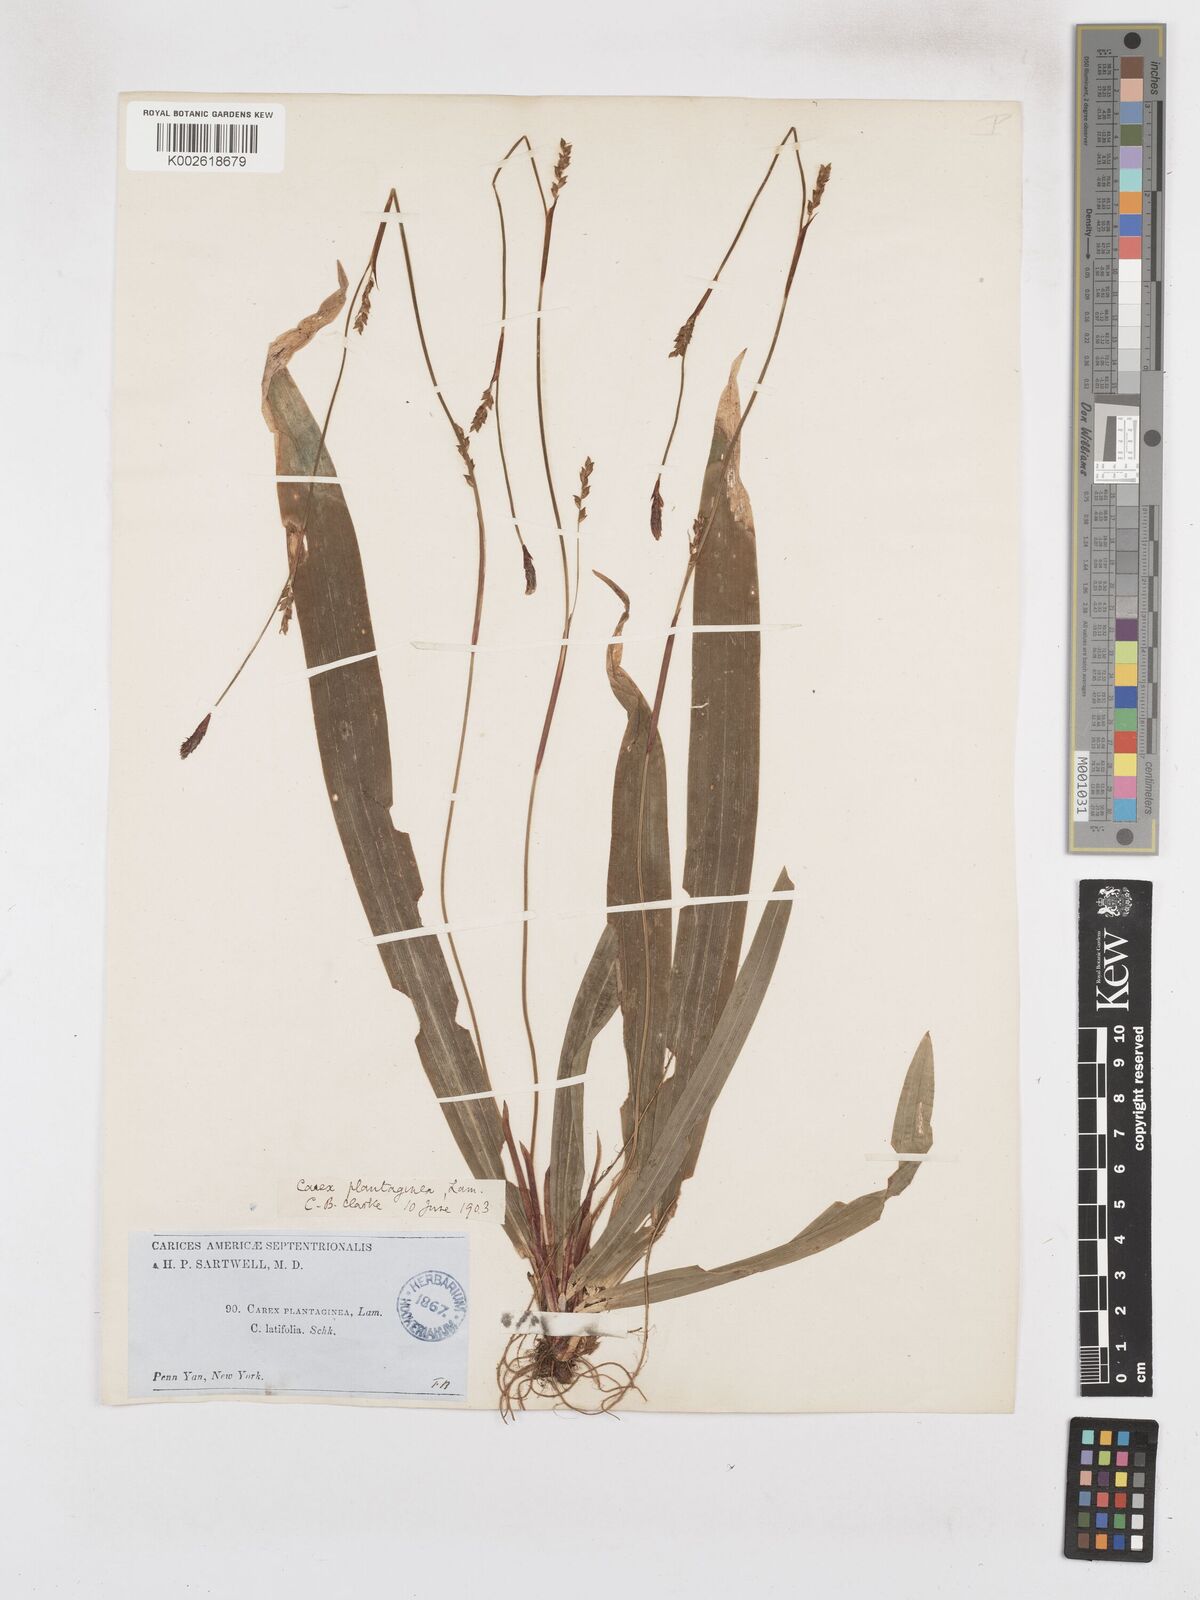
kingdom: Plantae
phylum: Tracheophyta
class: Liliopsida
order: Poales
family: Cyperaceae
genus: Carex
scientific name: Carex plantaginea
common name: Plantain-leaved sedge
